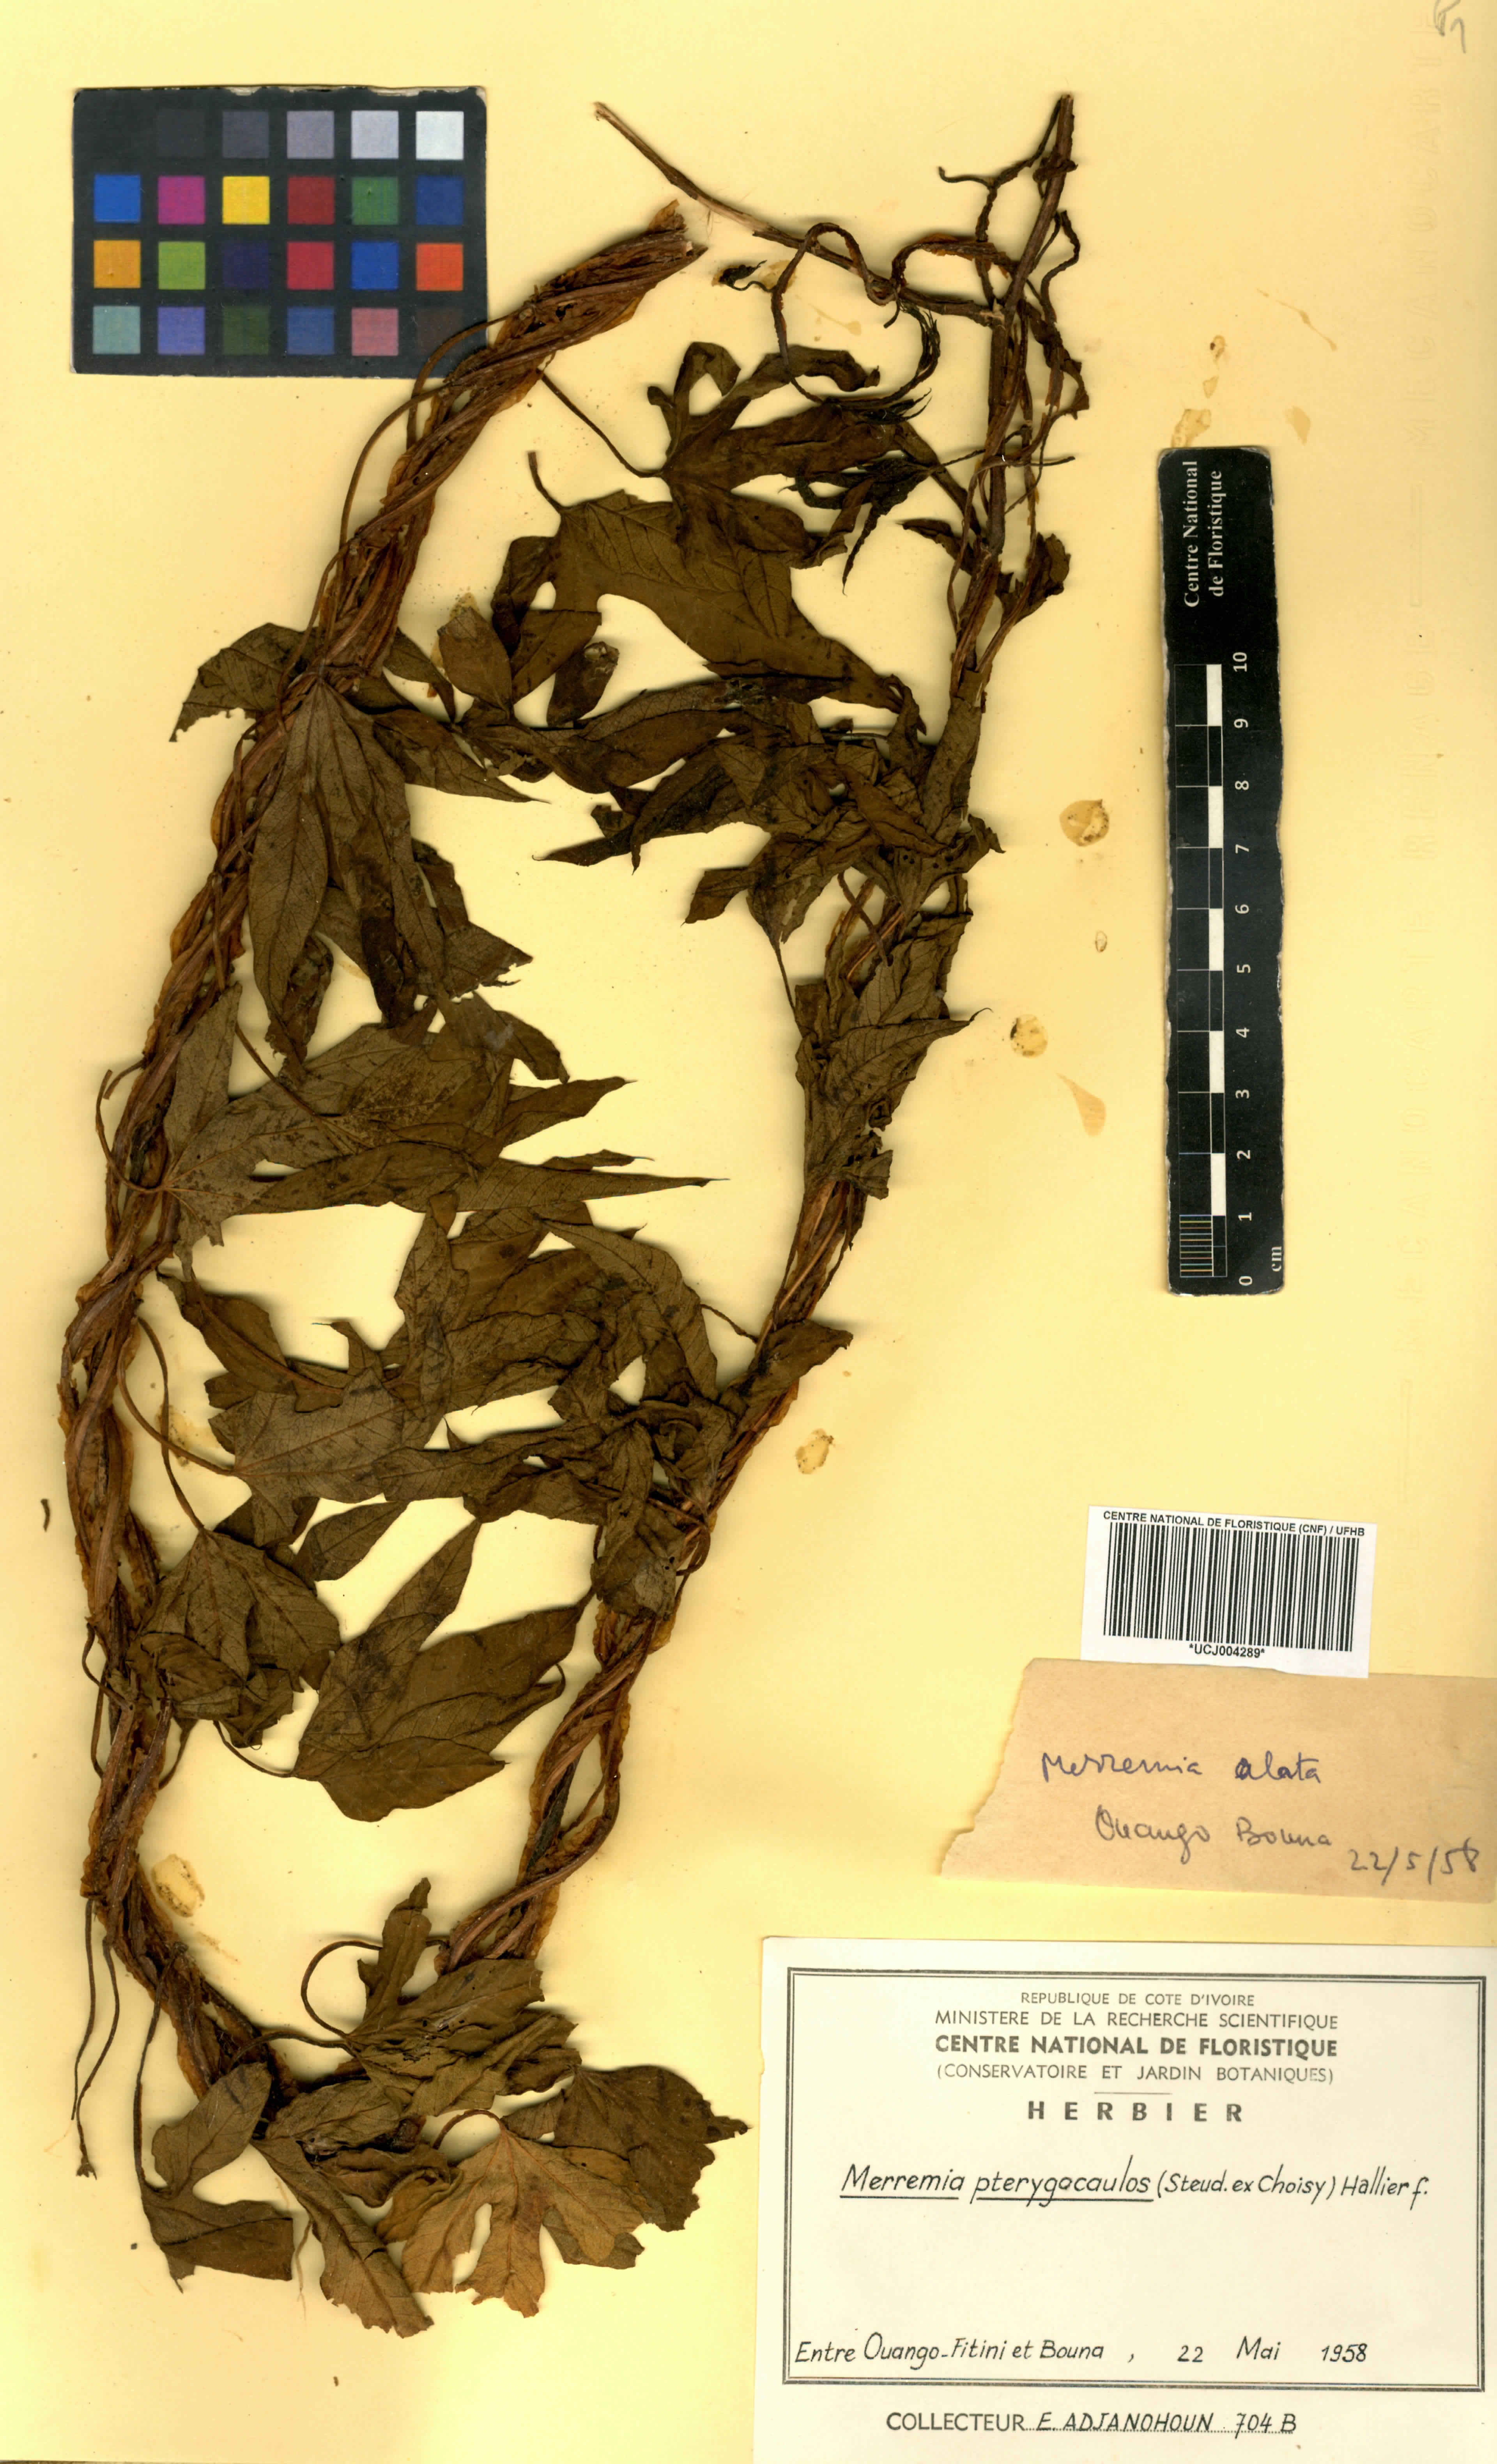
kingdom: Plantae
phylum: Tracheophyta
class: Magnoliopsida
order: Solanales
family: Convolvulaceae
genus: Merremia
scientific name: Merremia pterygocaulos
